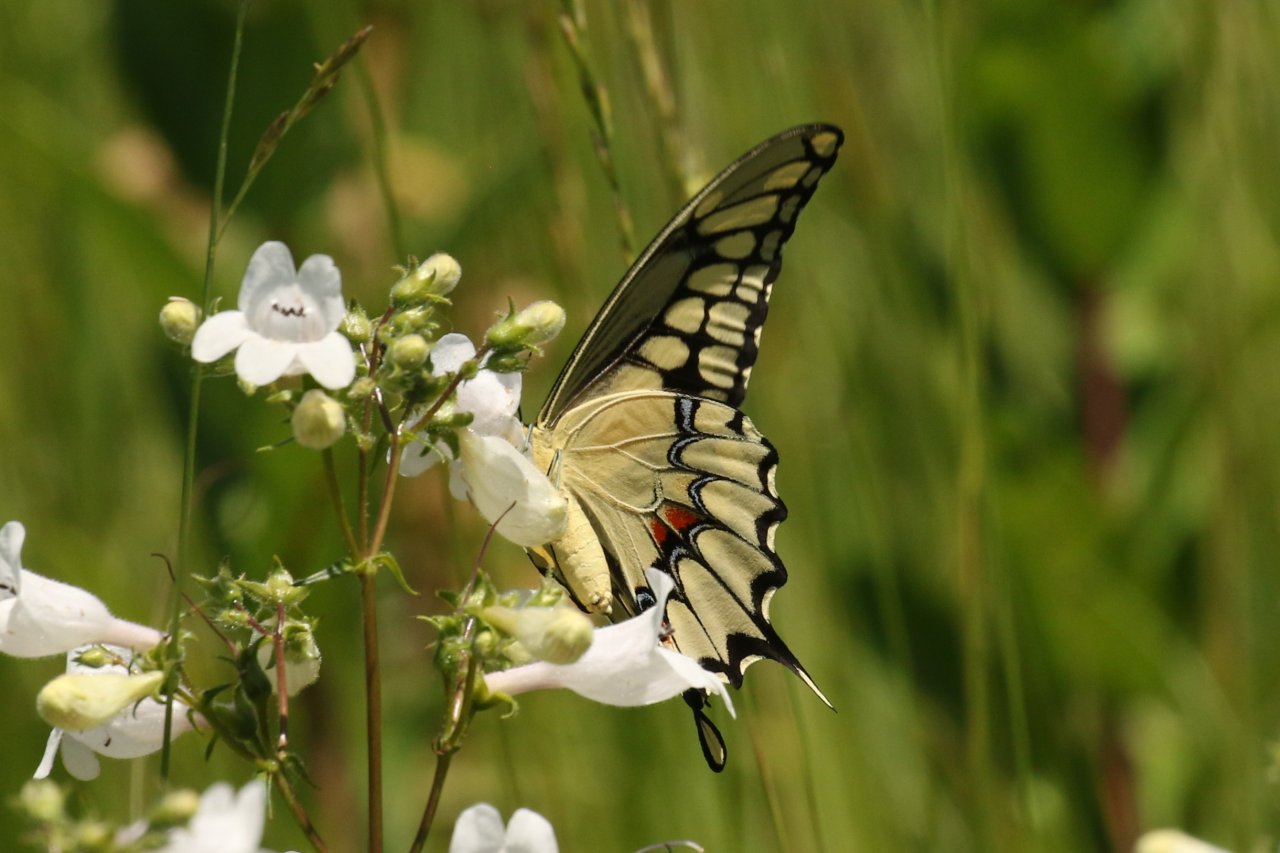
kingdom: Animalia
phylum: Arthropoda
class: Insecta
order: Lepidoptera
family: Papilionidae
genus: Papilio
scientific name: Papilio cresphontes
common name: Eastern Giant Swallowtail
